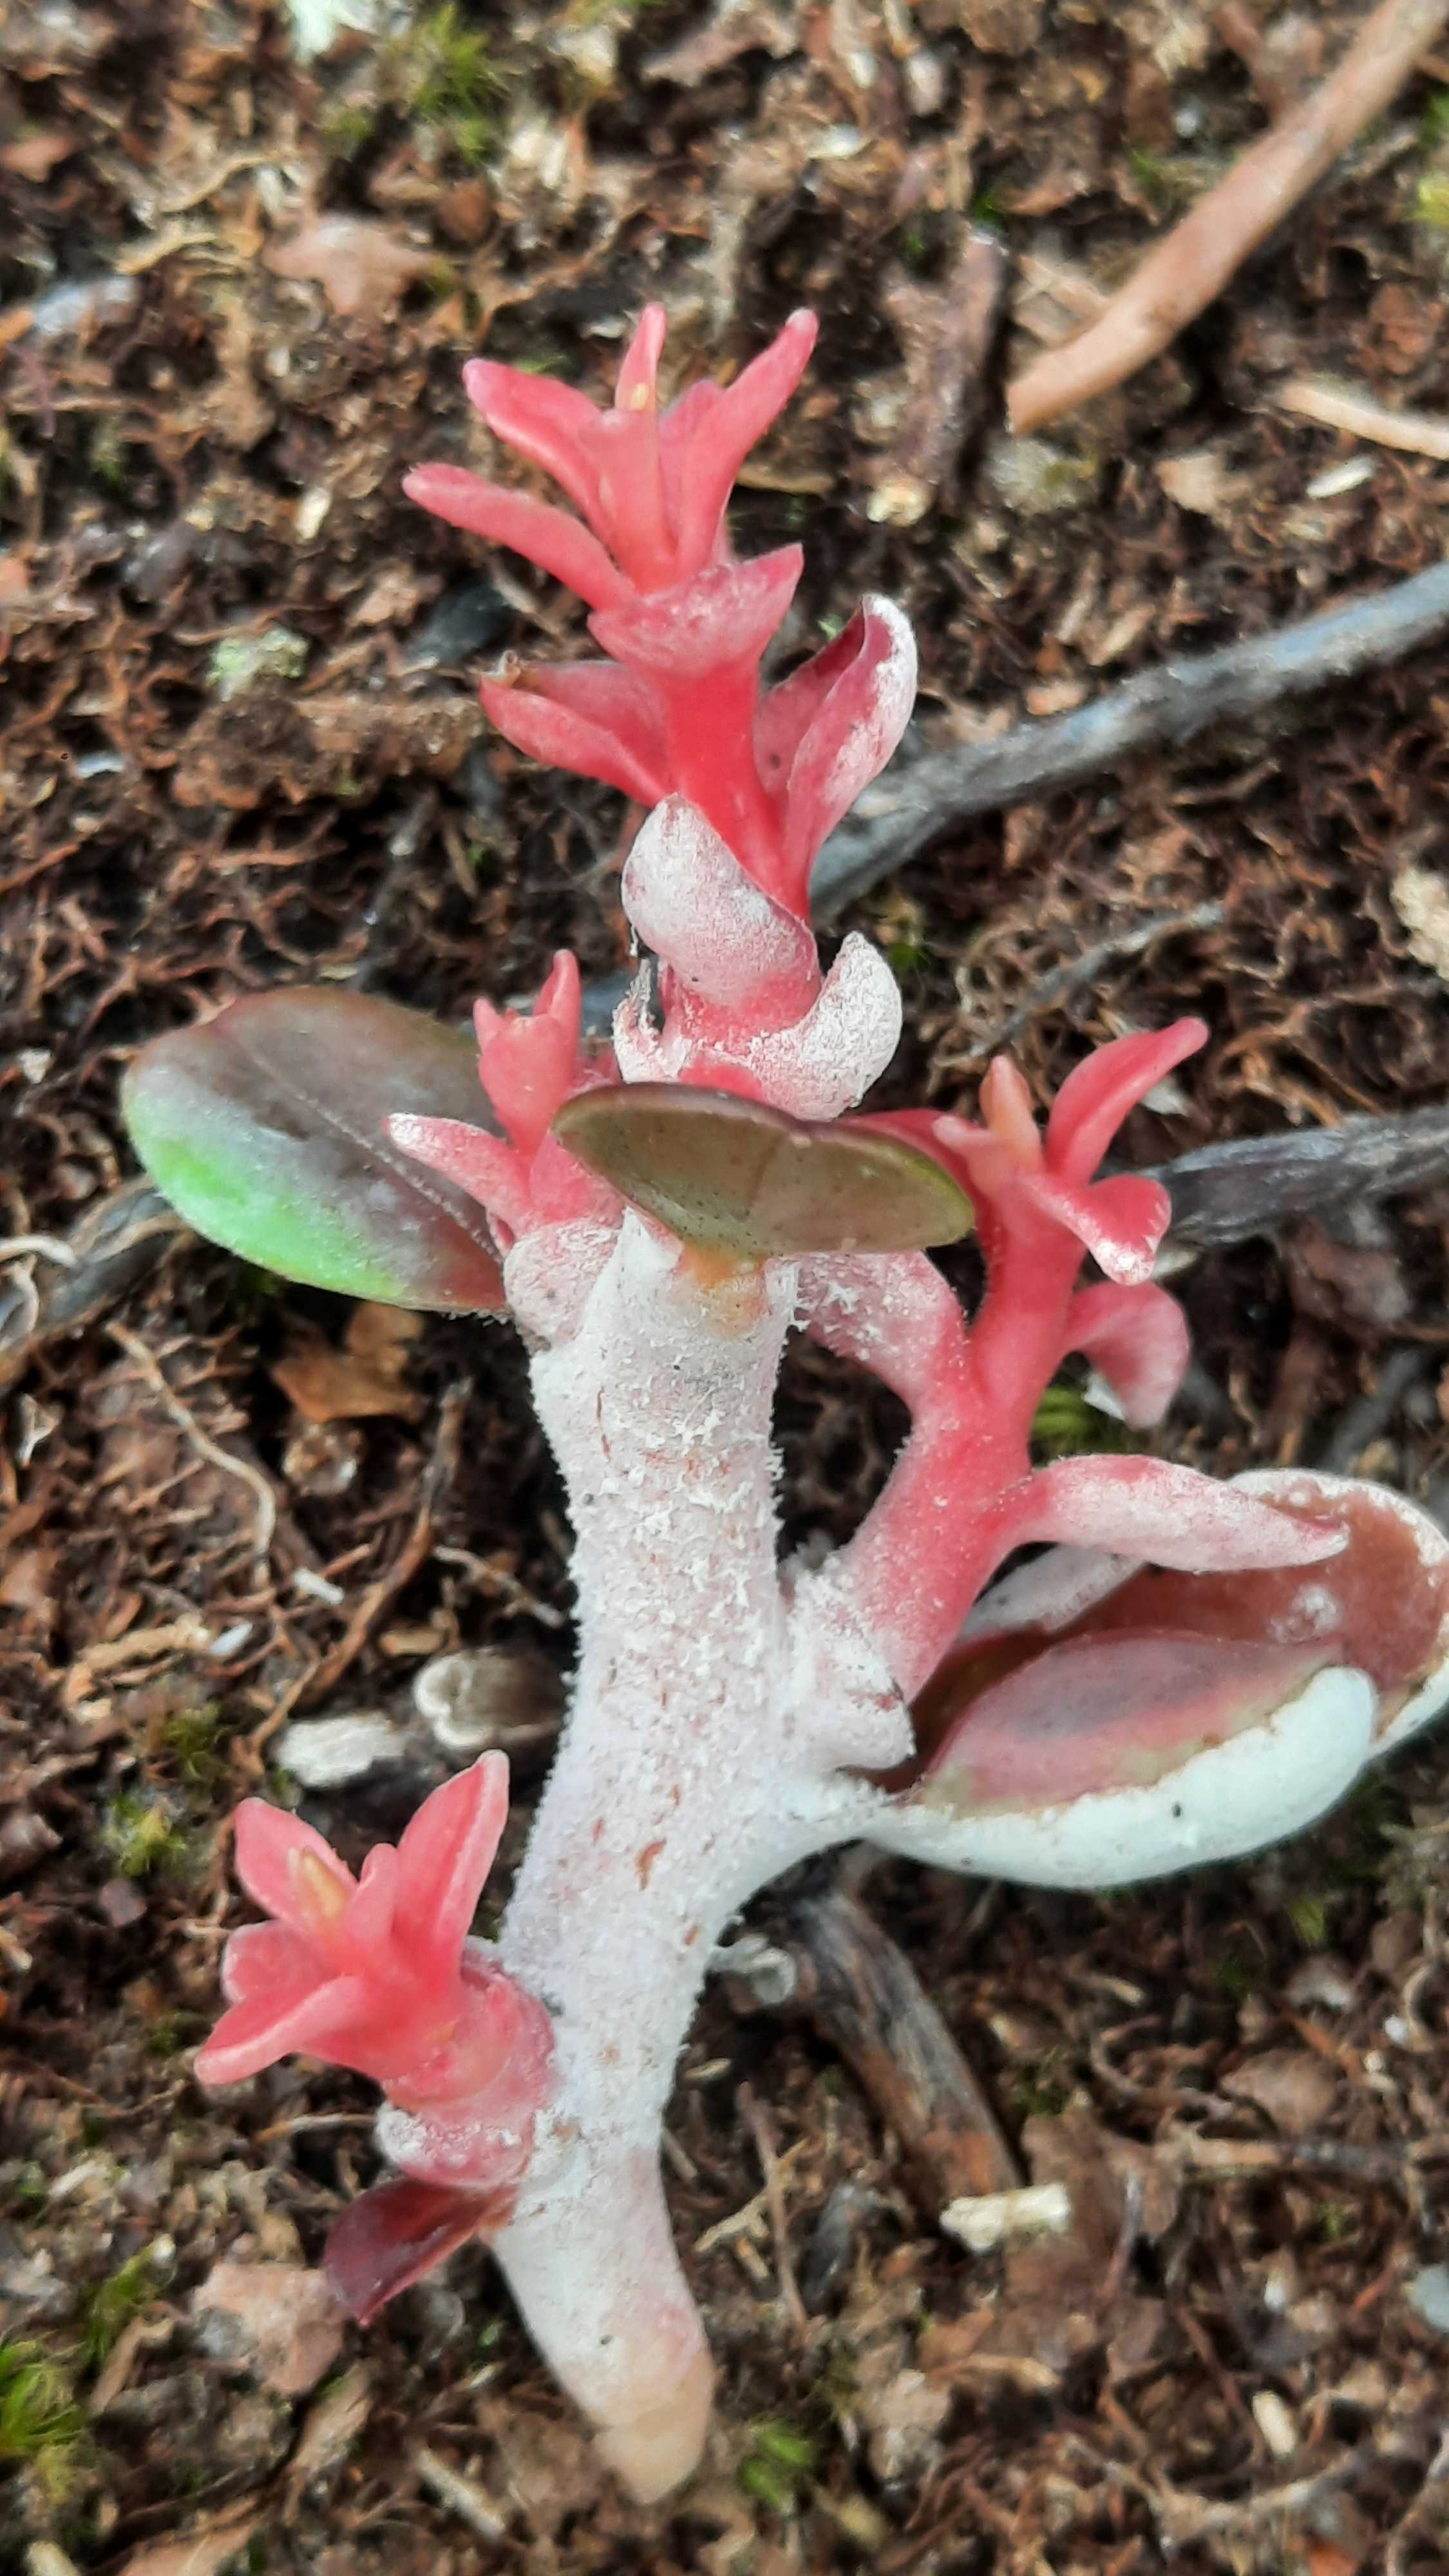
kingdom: Fungi
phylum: Basidiomycota
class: Exobasidiomycetes
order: Exobasidiales
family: Exobasidiaceae
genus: Exobasidium
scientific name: Exobasidium vaccinii
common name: tyttebærblad-bøllesvamp
